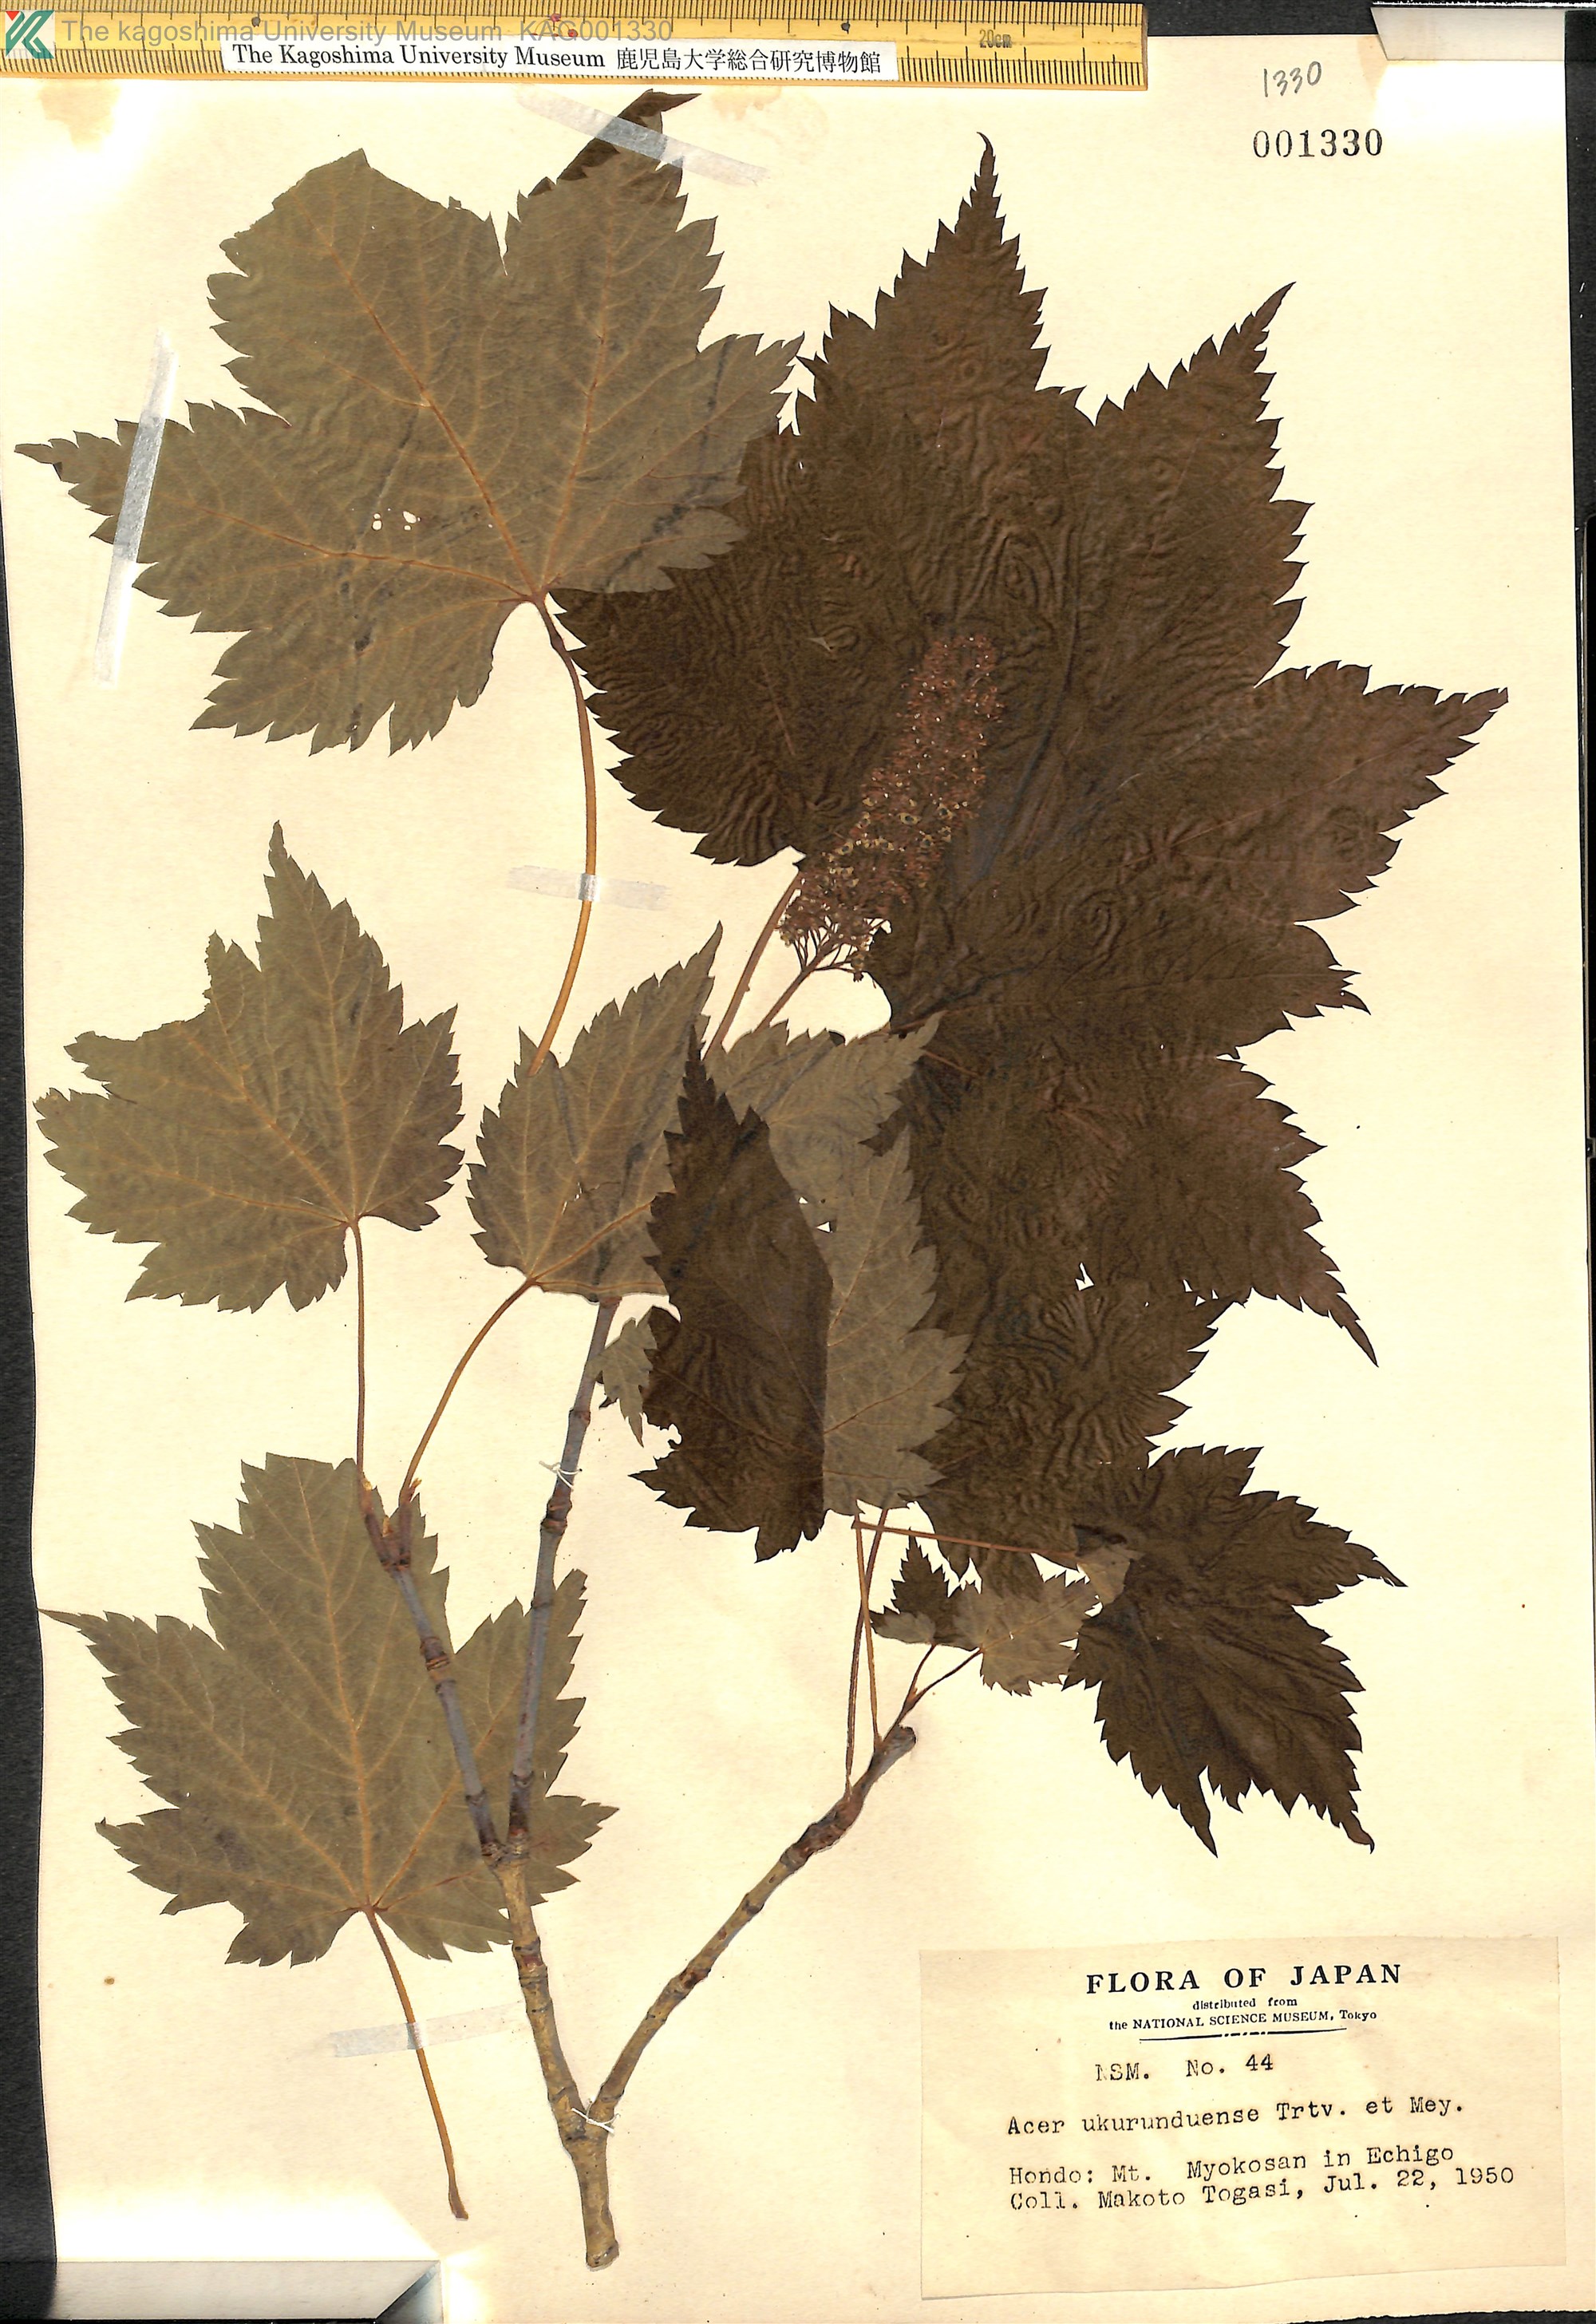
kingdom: Plantae
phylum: Tracheophyta
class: Magnoliopsida
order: Sapindales
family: Sapindaceae
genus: Acer
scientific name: Acer ukurunduense
